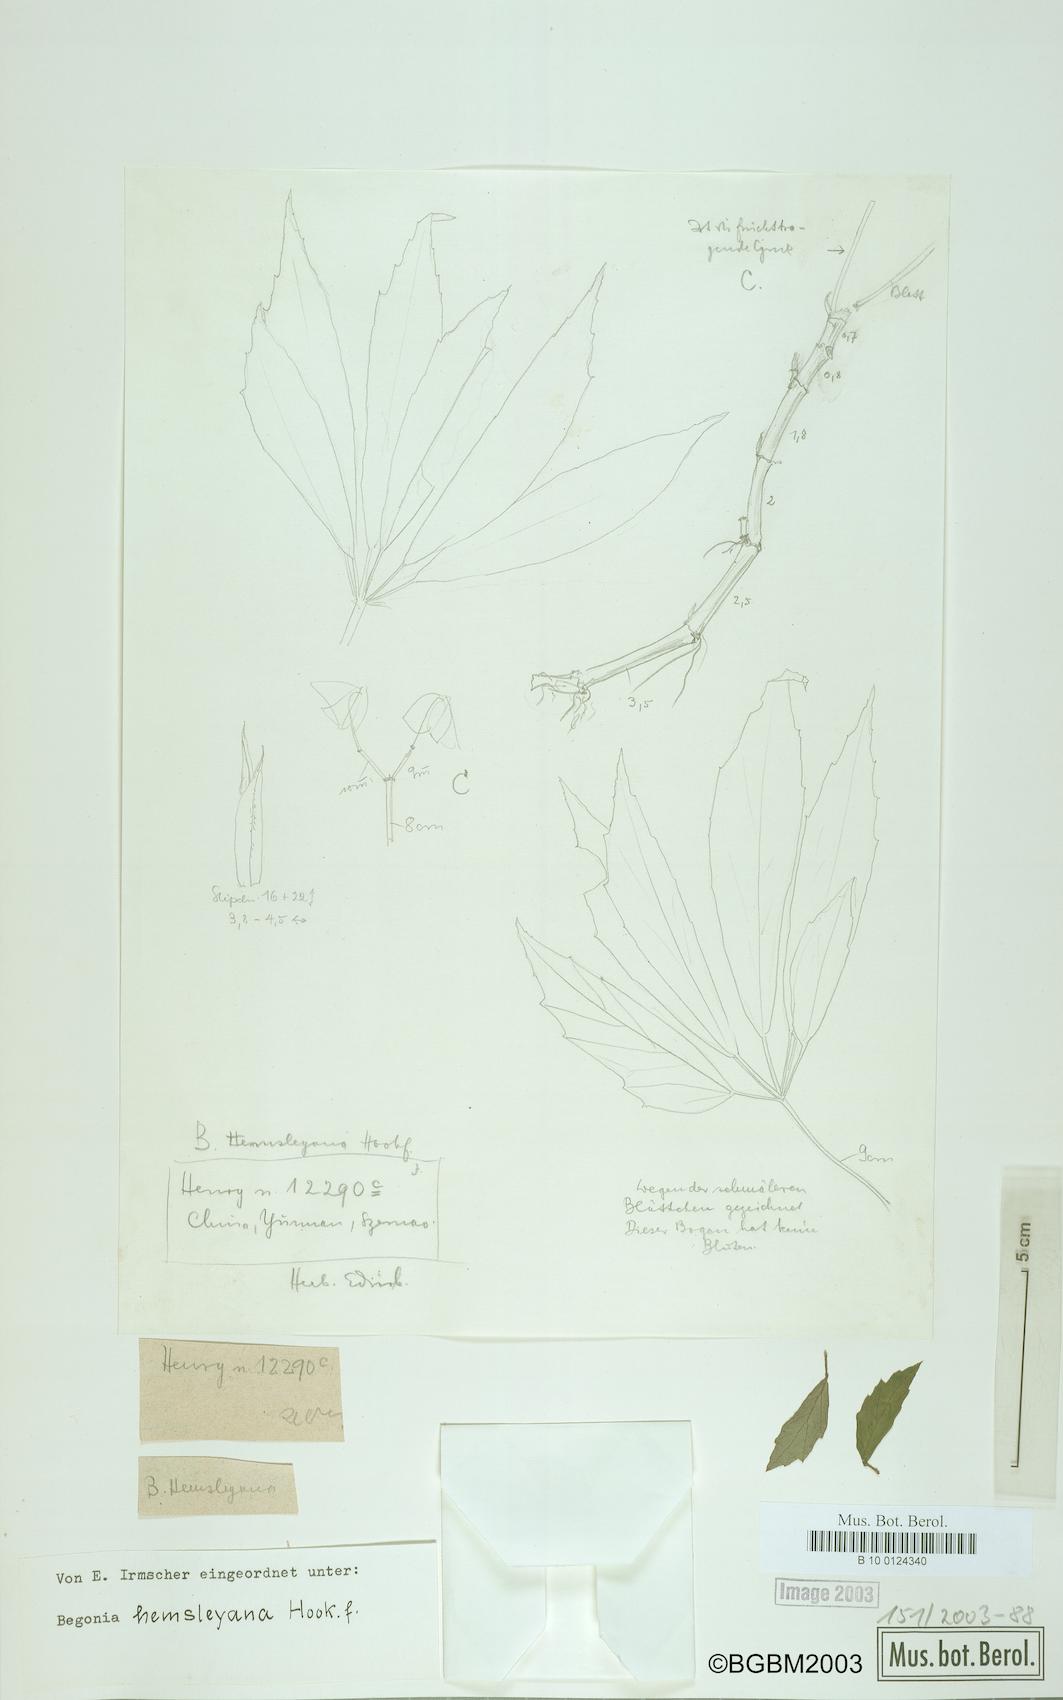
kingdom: Plantae
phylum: Tracheophyta
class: Magnoliopsida
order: Cucurbitales
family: Begoniaceae
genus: Begonia
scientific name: Begonia hemsleyana
